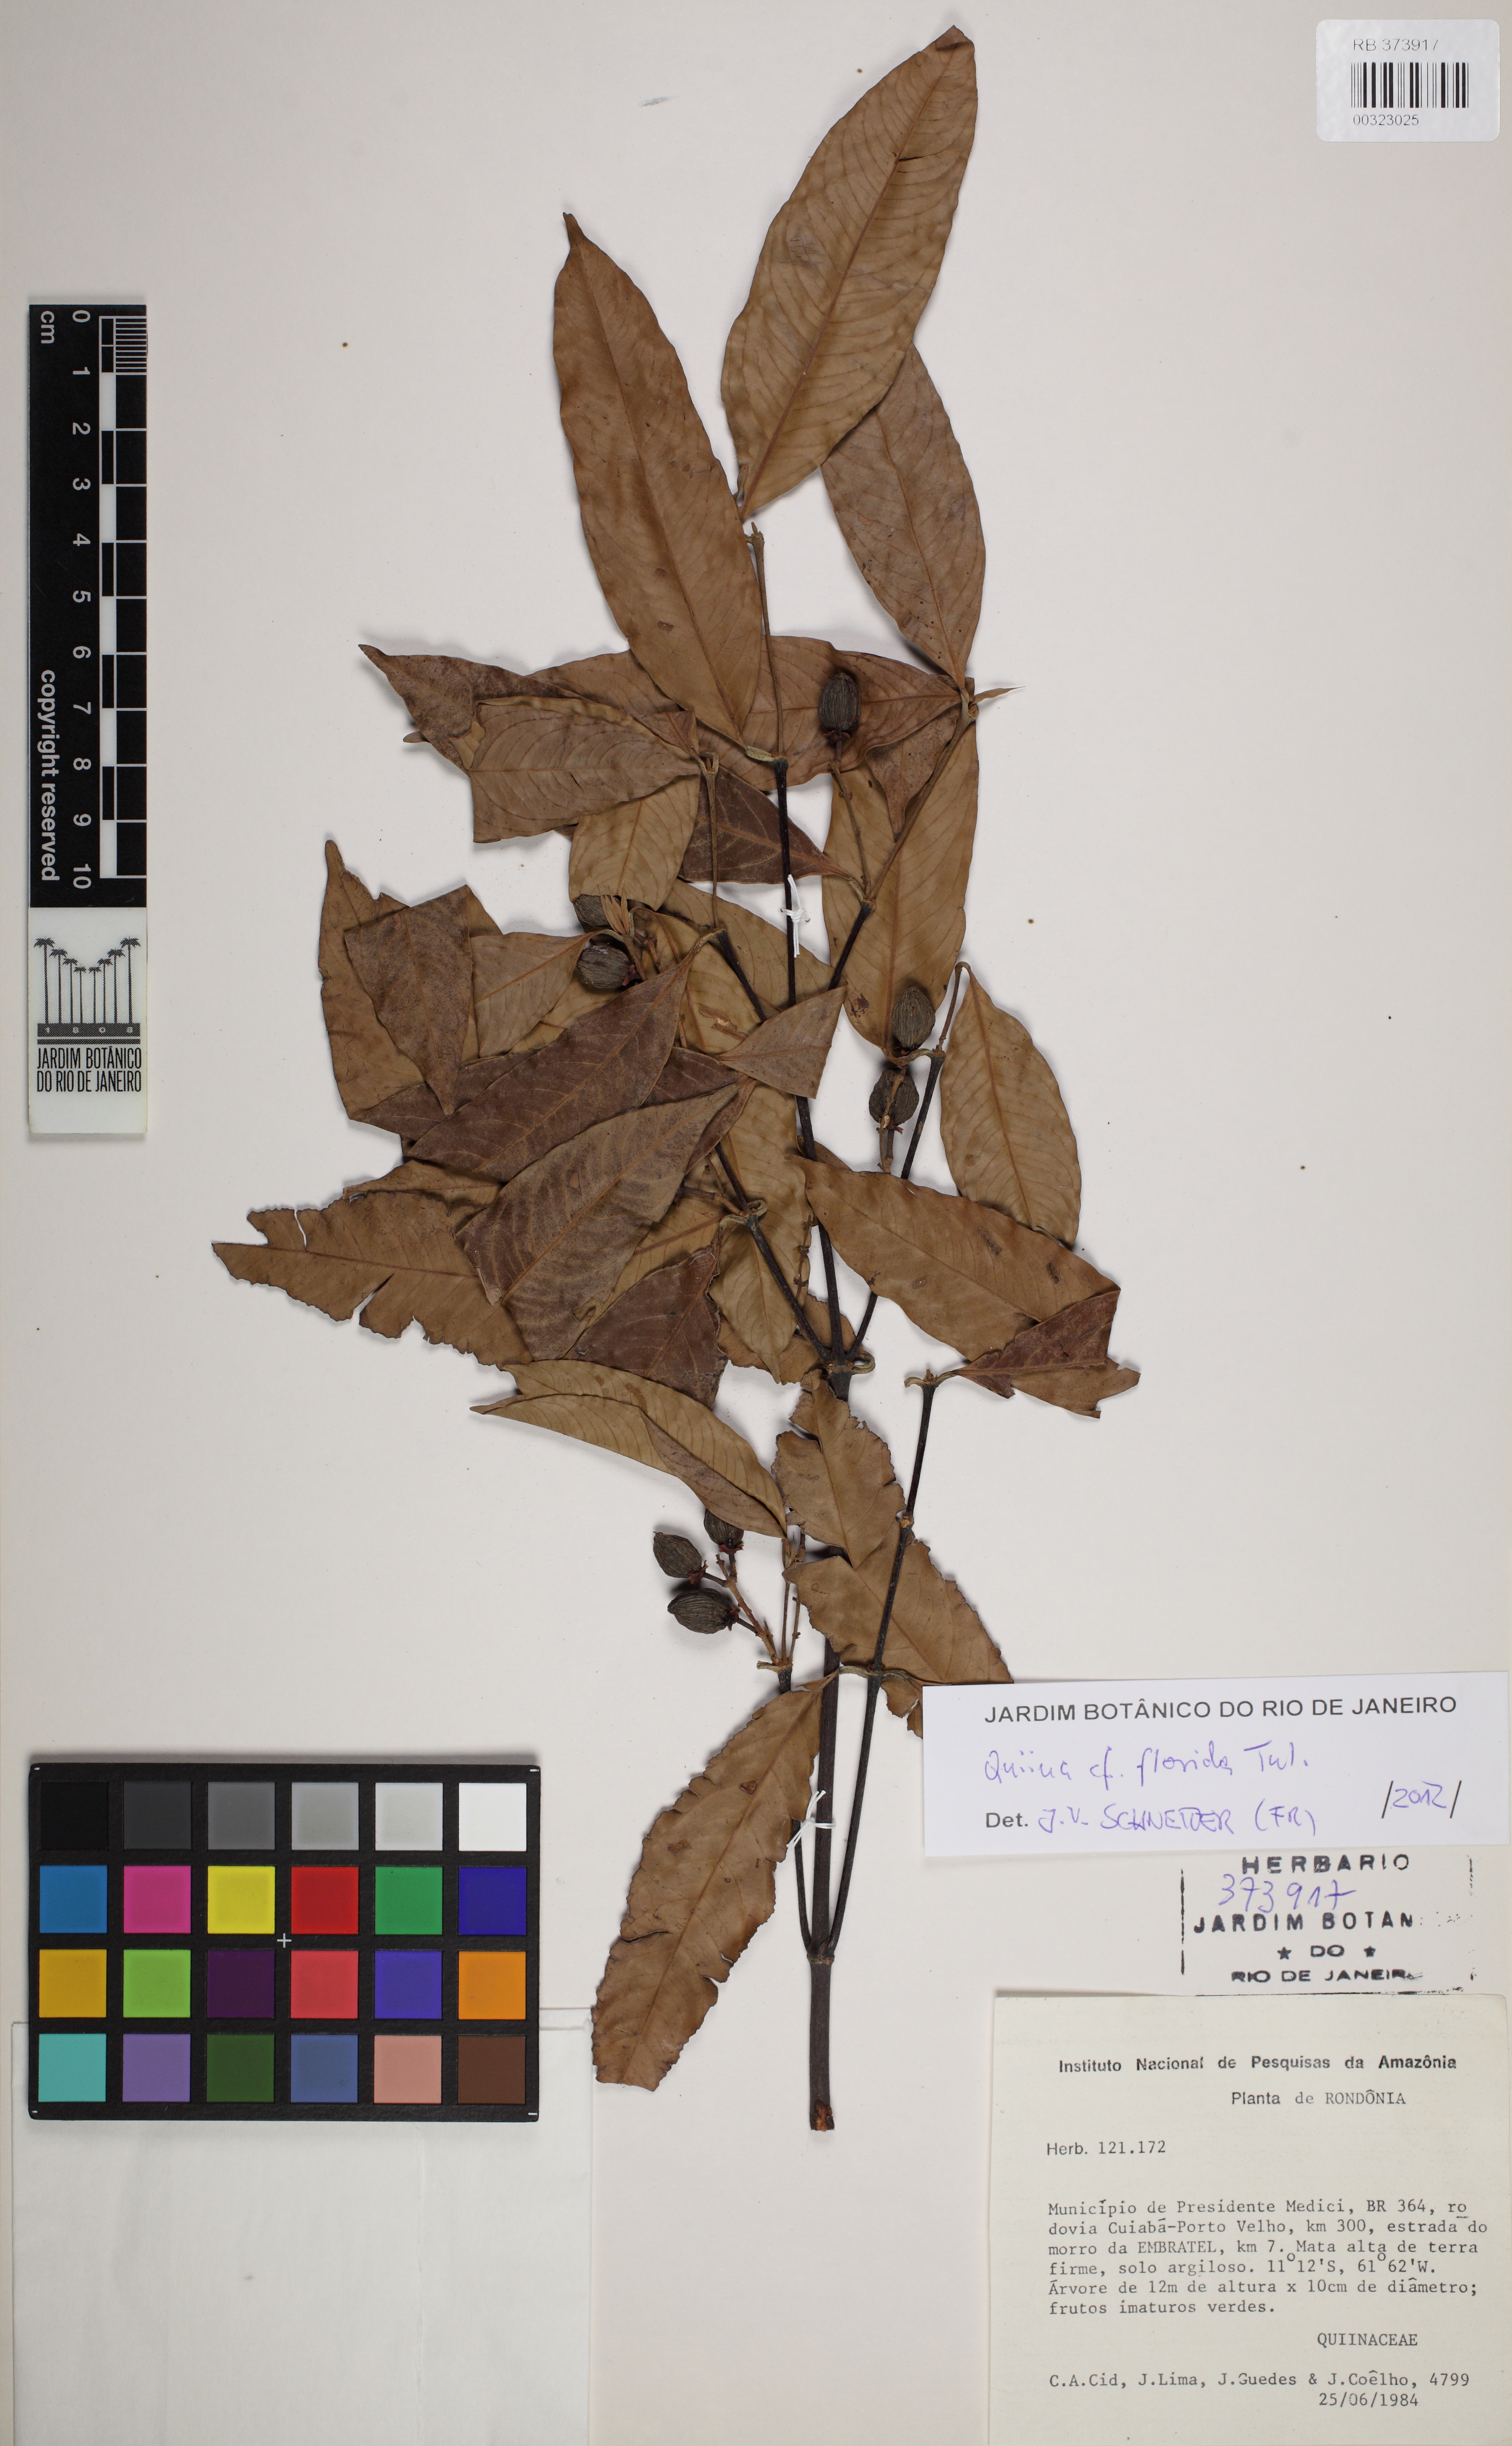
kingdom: Plantae
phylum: Tracheophyta
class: Magnoliopsida
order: Malpighiales
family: Quiinaceae
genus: Quiina
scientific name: Quiina florida
